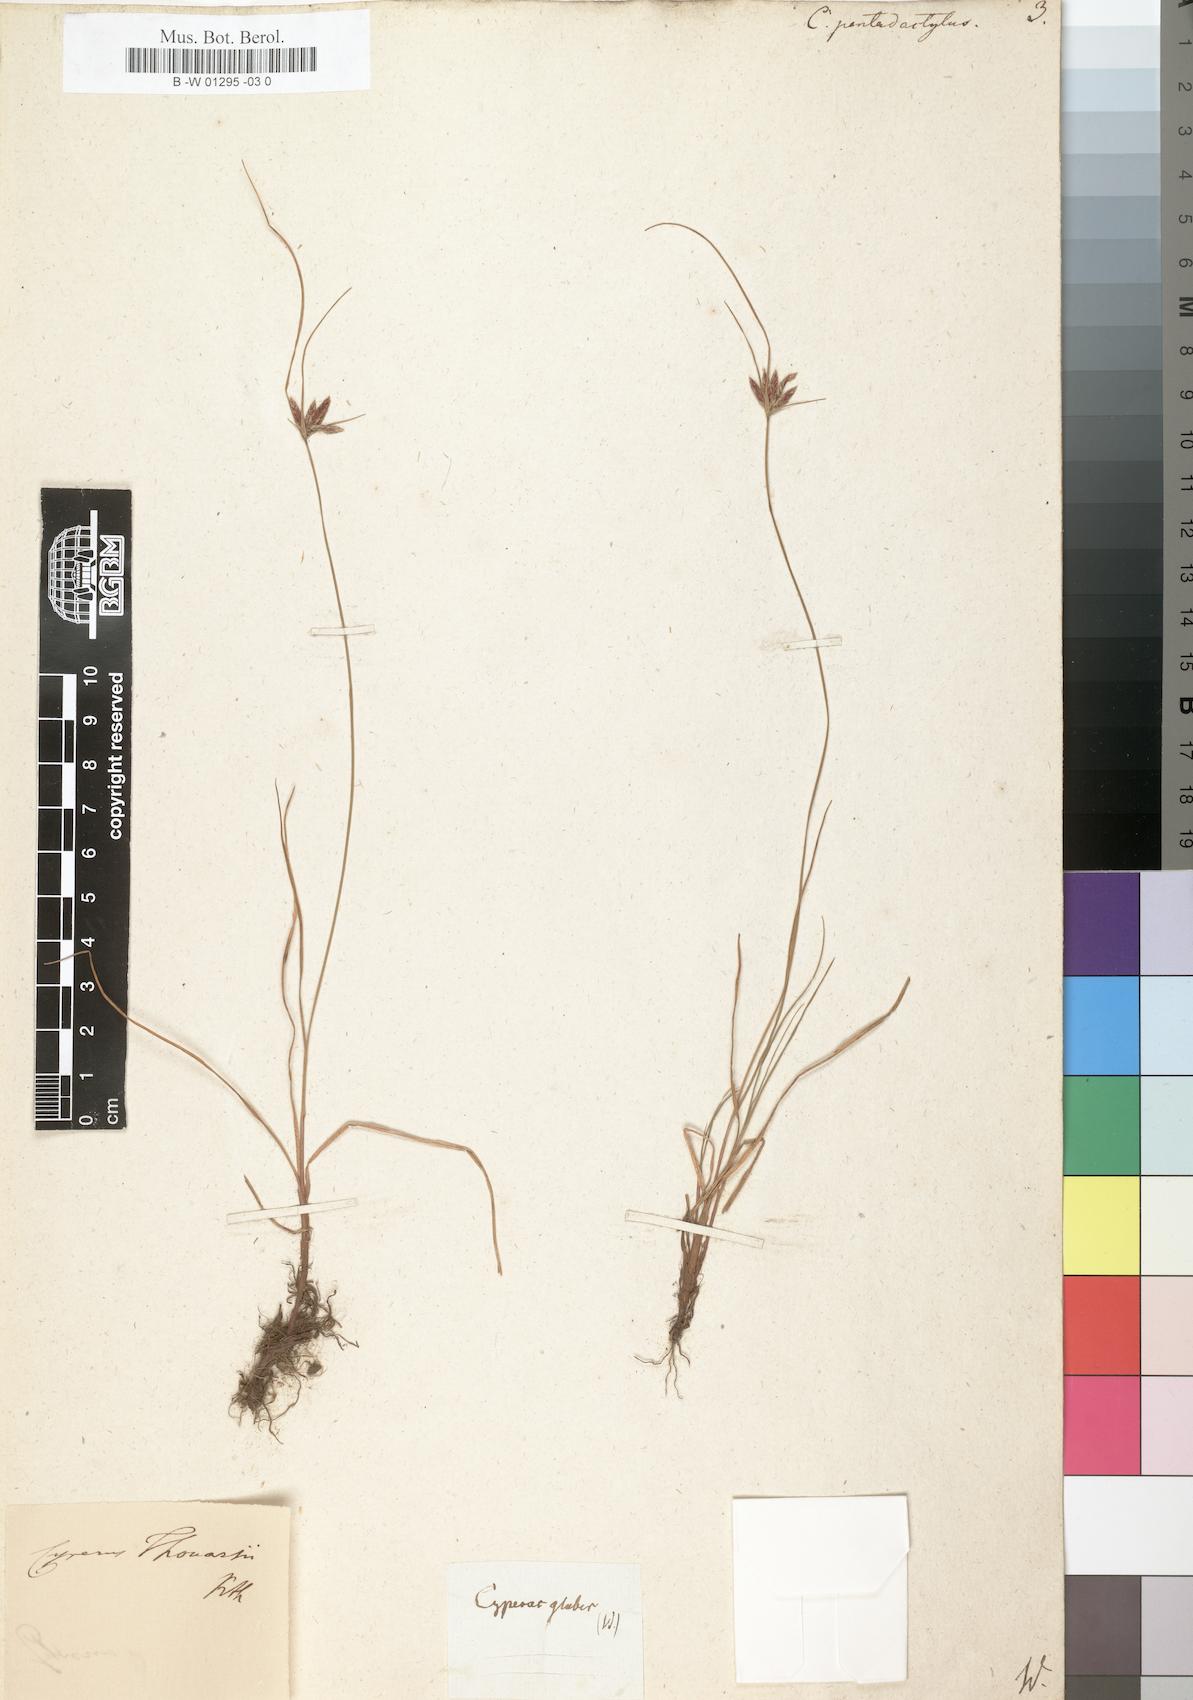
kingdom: Plantae
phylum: Tracheophyta
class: Liliopsida
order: Poales
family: Cyperaceae
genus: Cyperus
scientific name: Cyperus pentadactylus
